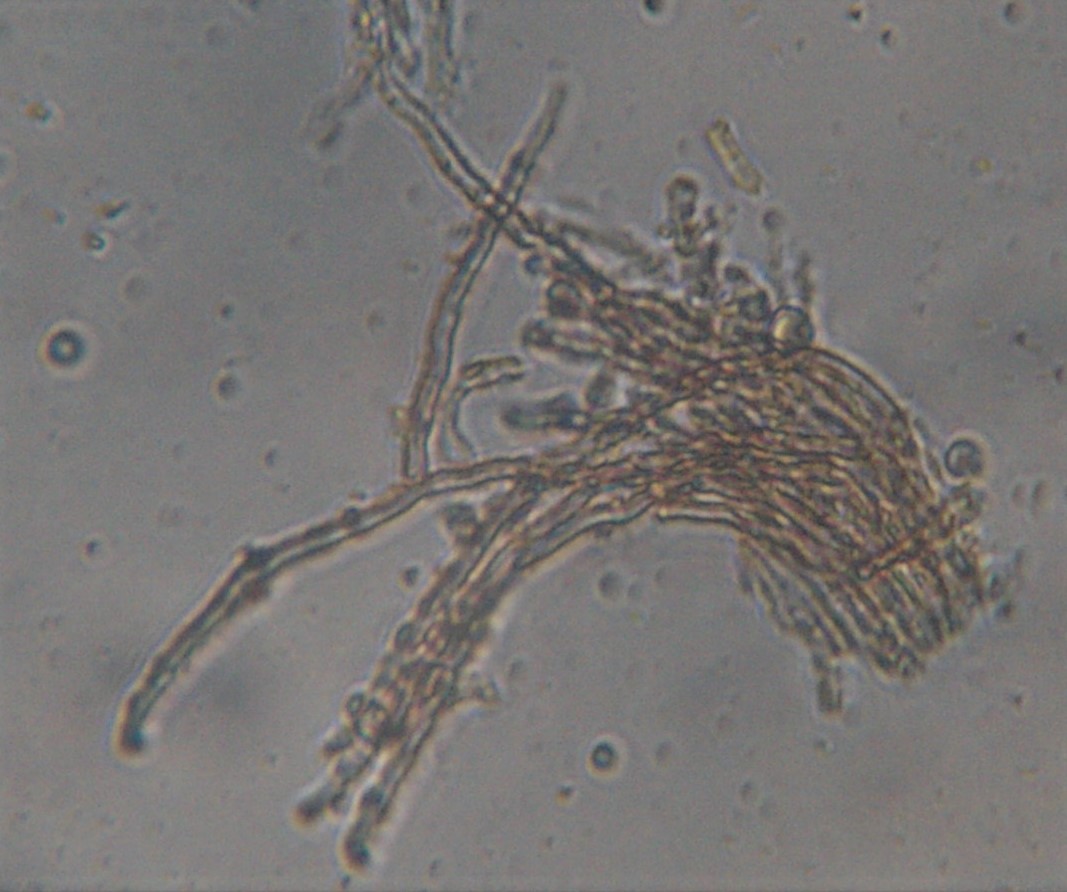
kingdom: Fungi
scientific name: Fungi
